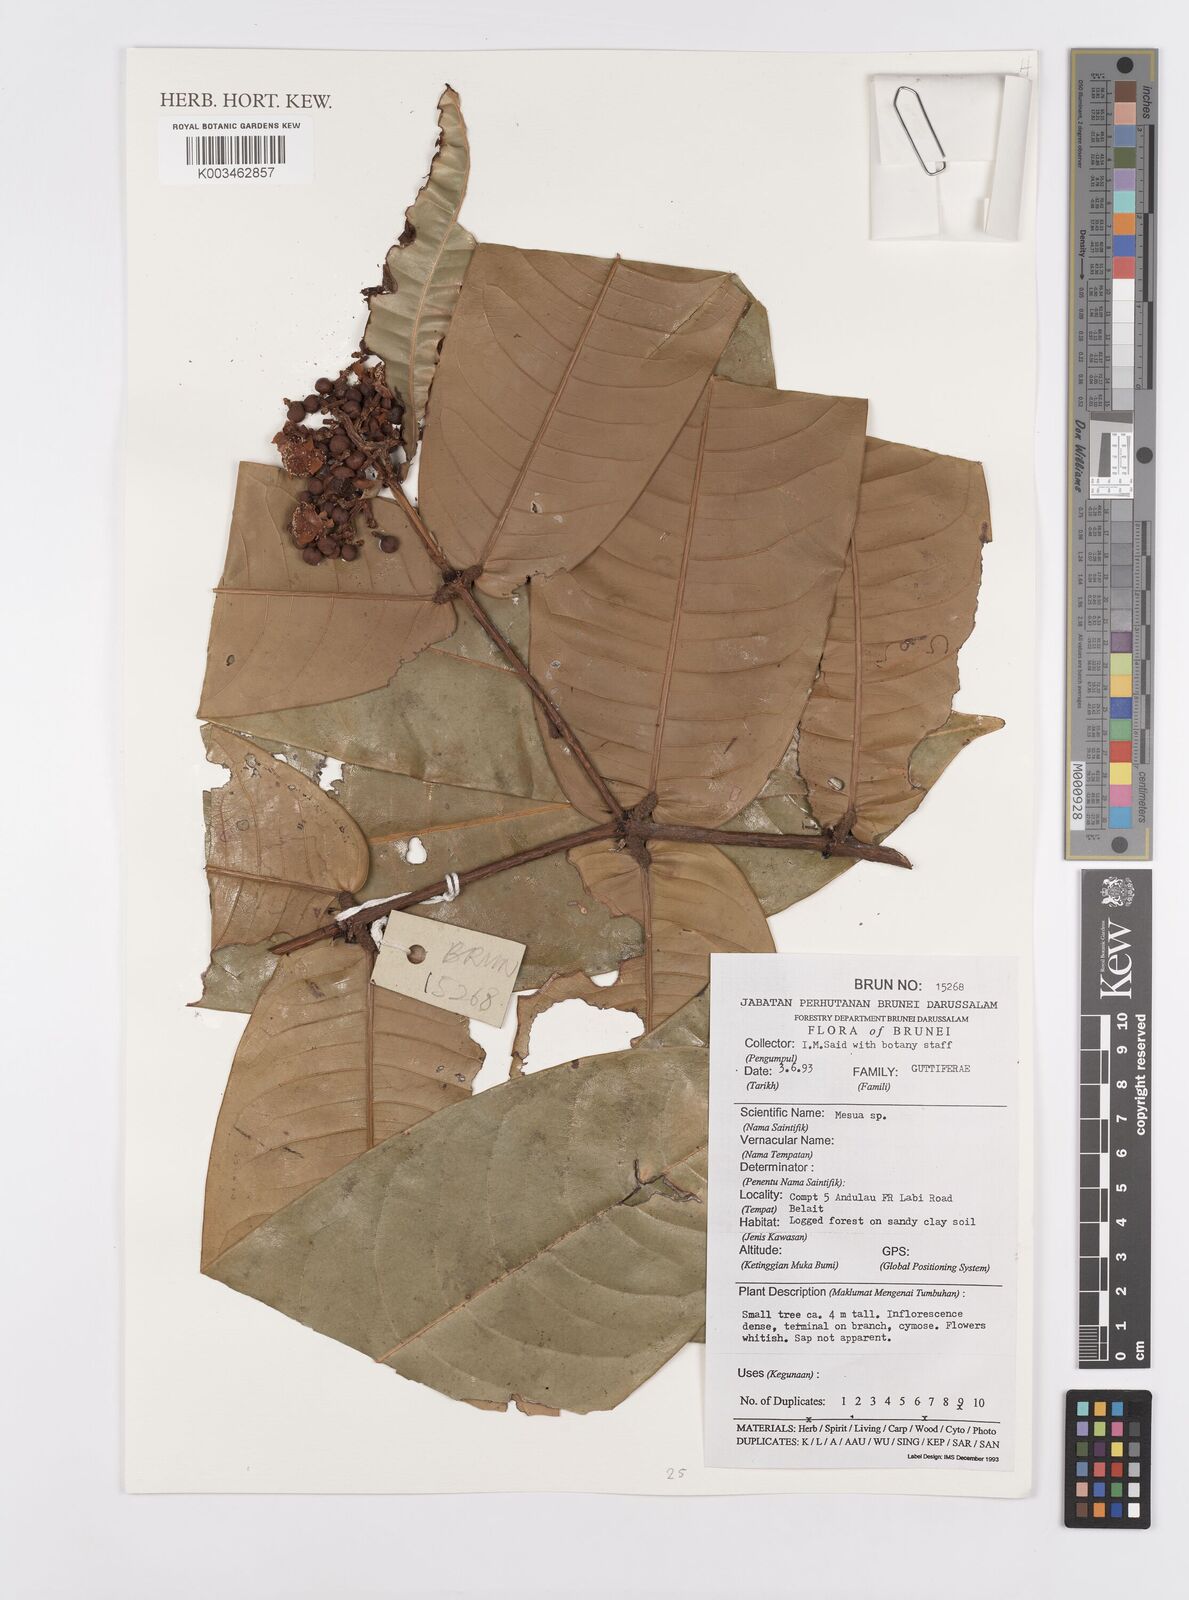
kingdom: Plantae
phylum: Tracheophyta
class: Magnoliopsida
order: Malpighiales
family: Calophyllaceae
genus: Mesua
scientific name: Mesua
